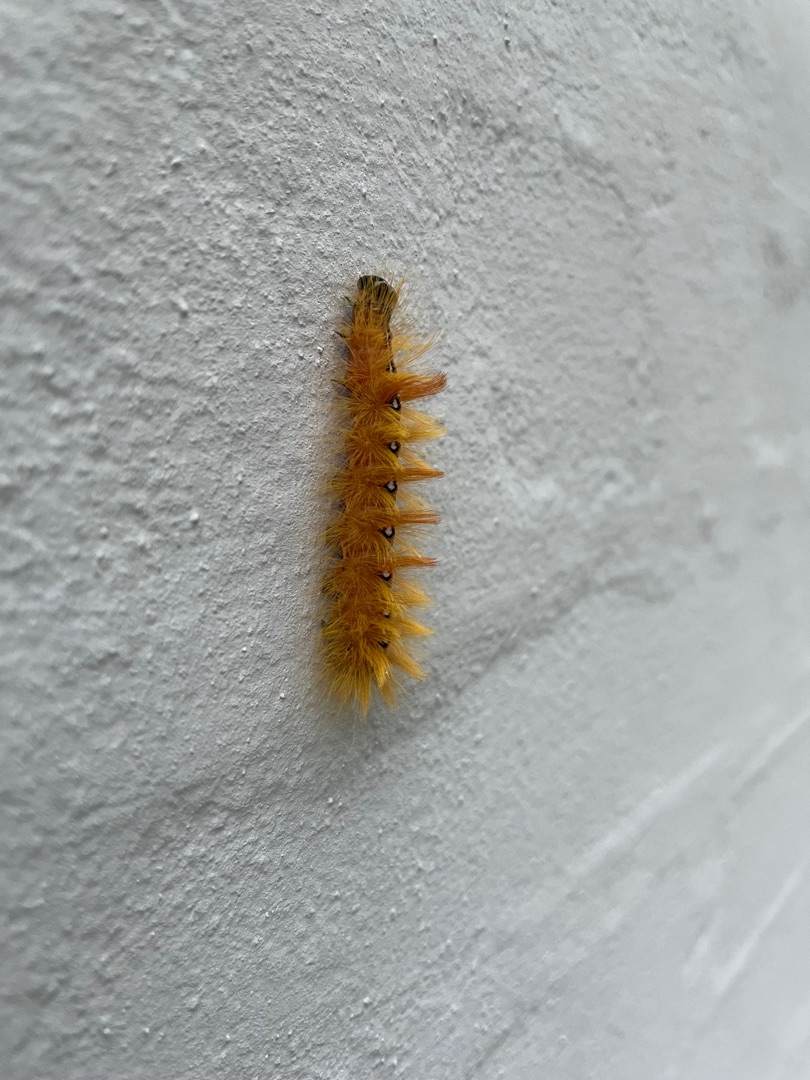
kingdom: Animalia
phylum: Arthropoda
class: Insecta
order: Lepidoptera
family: Noctuidae
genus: Acronicta
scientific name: Acronicta aceris
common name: Ahornugle
